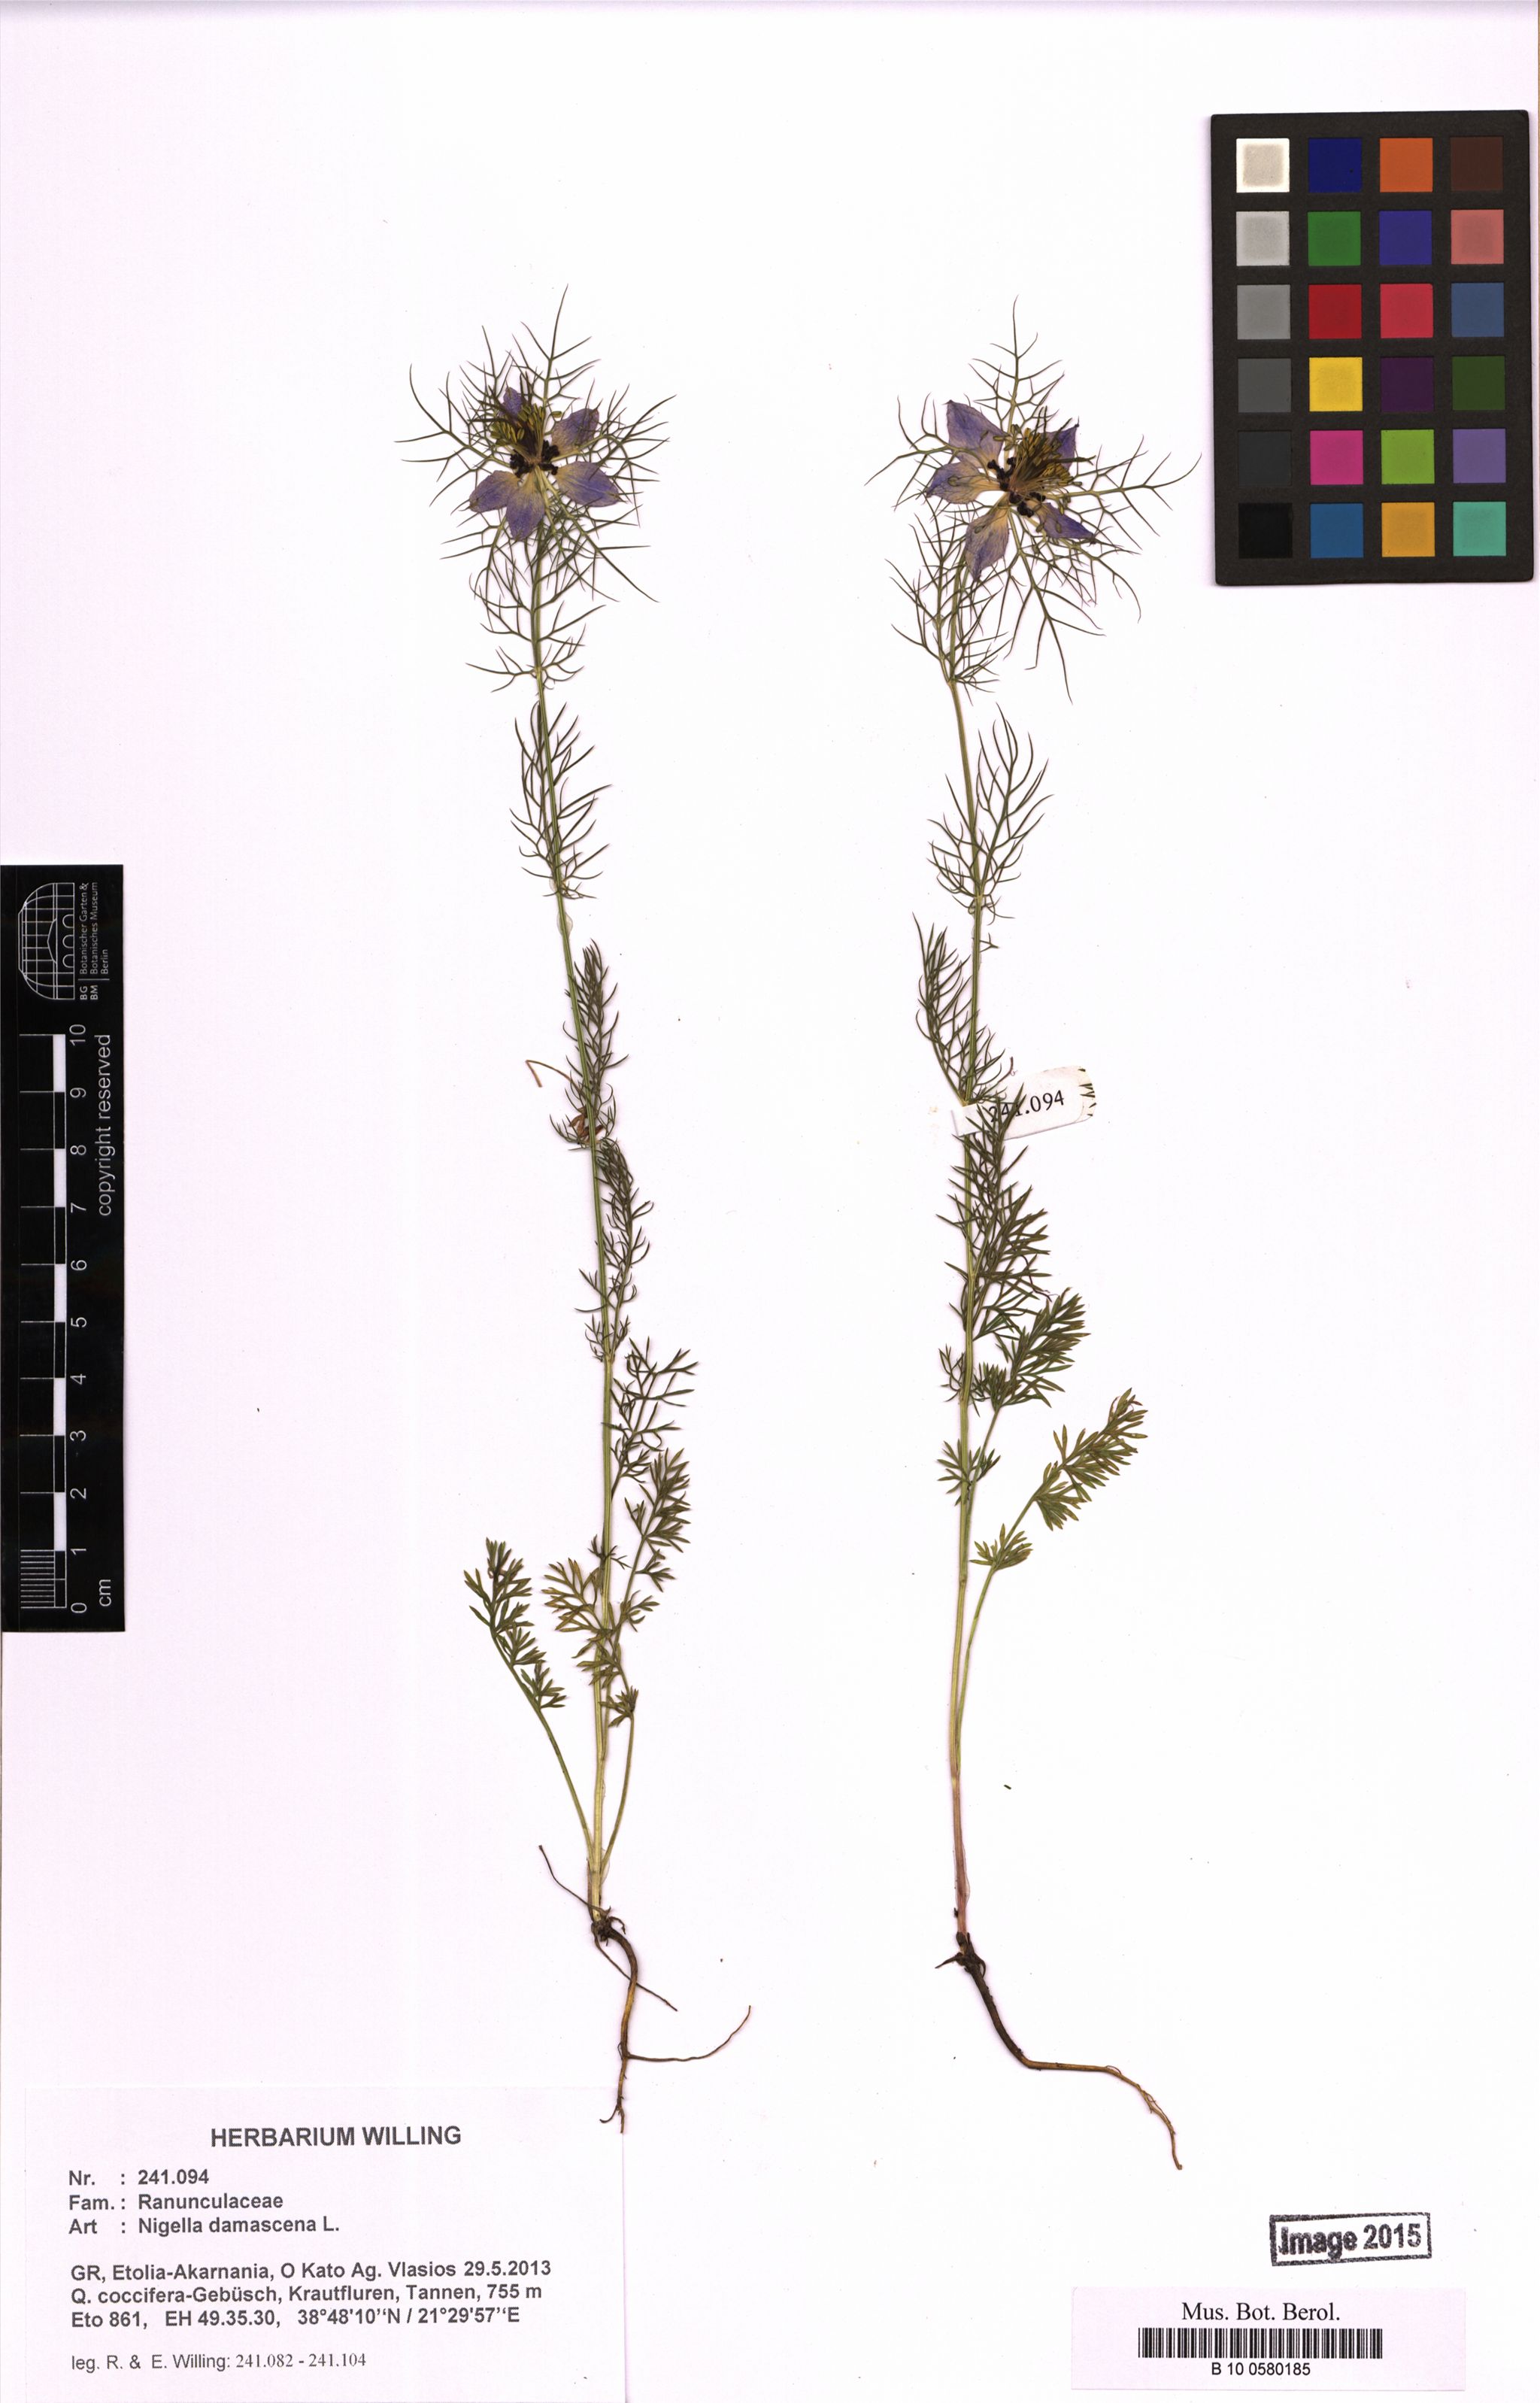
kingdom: Plantae
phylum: Tracheophyta
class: Magnoliopsida
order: Ranunculales
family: Ranunculaceae
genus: Nigella
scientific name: Nigella damascena
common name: Love-in-a-mist
